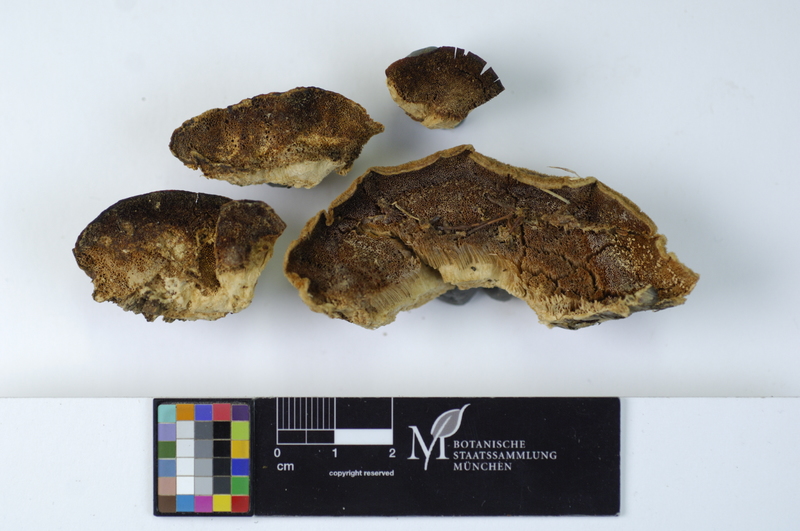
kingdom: Fungi
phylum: Basidiomycota
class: Agaricomycetes
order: Polyporales
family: Polyporaceae
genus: Trametes
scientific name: Trametes ochracea
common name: Ochre bracket
